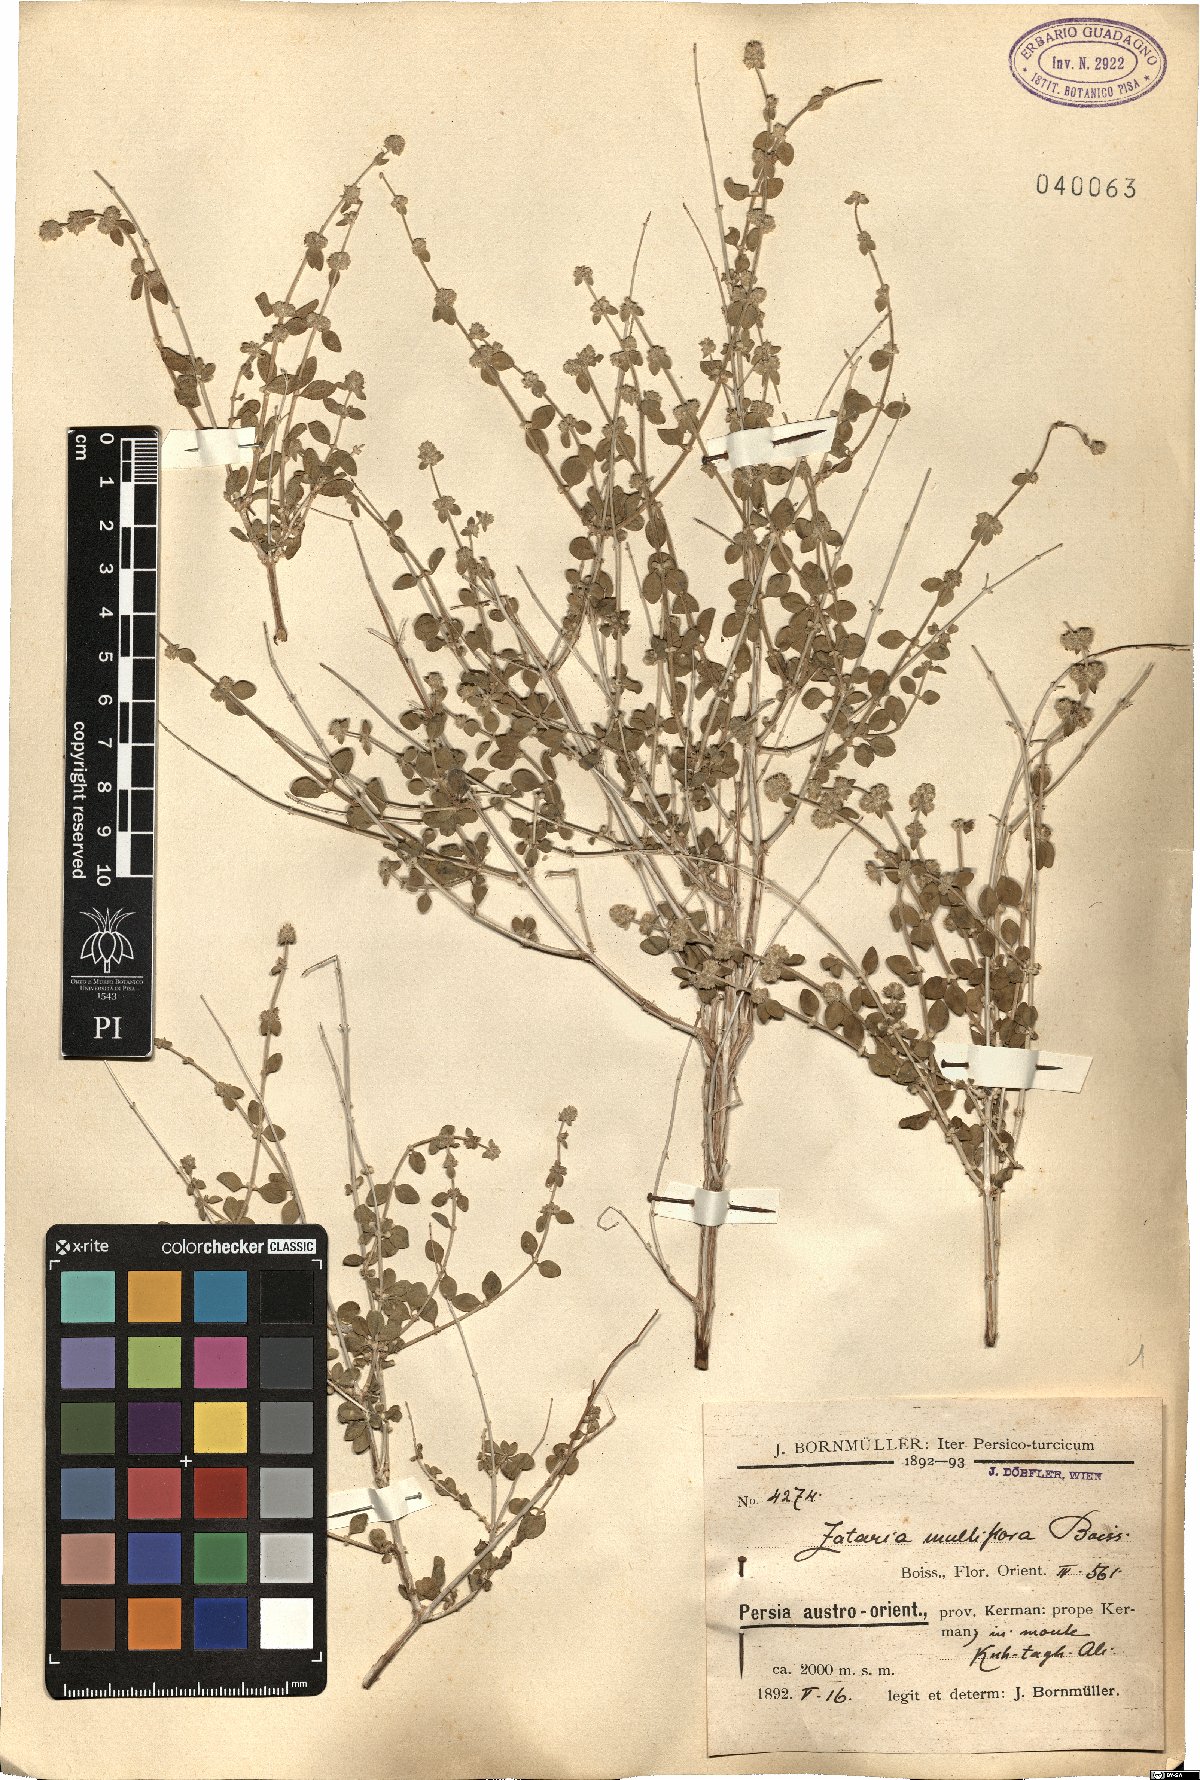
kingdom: Plantae
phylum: Tracheophyta
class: Magnoliopsida
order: Lamiales
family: Lamiaceae
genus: Zataria
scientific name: Zataria multiflora
